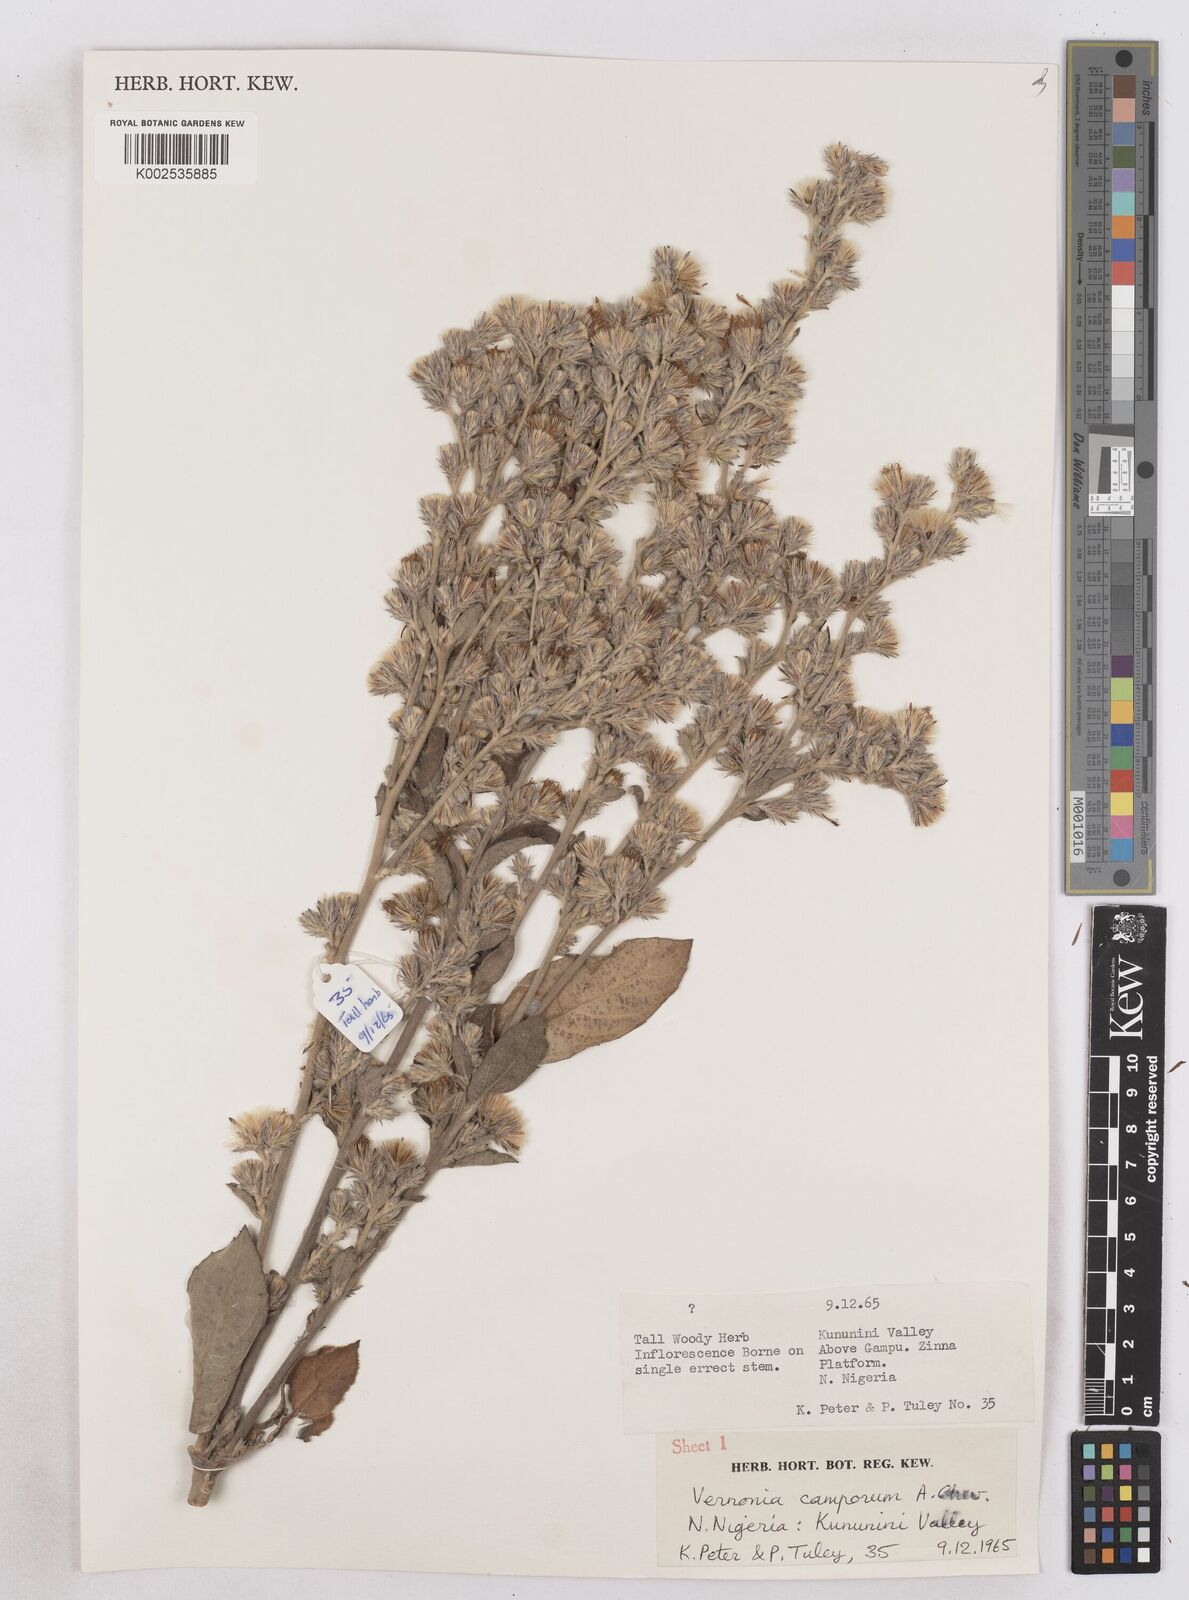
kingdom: Plantae
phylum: Tracheophyta
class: Magnoliopsida
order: Asterales
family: Asteraceae
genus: Vernoniastrum
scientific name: Vernoniastrum camporum
